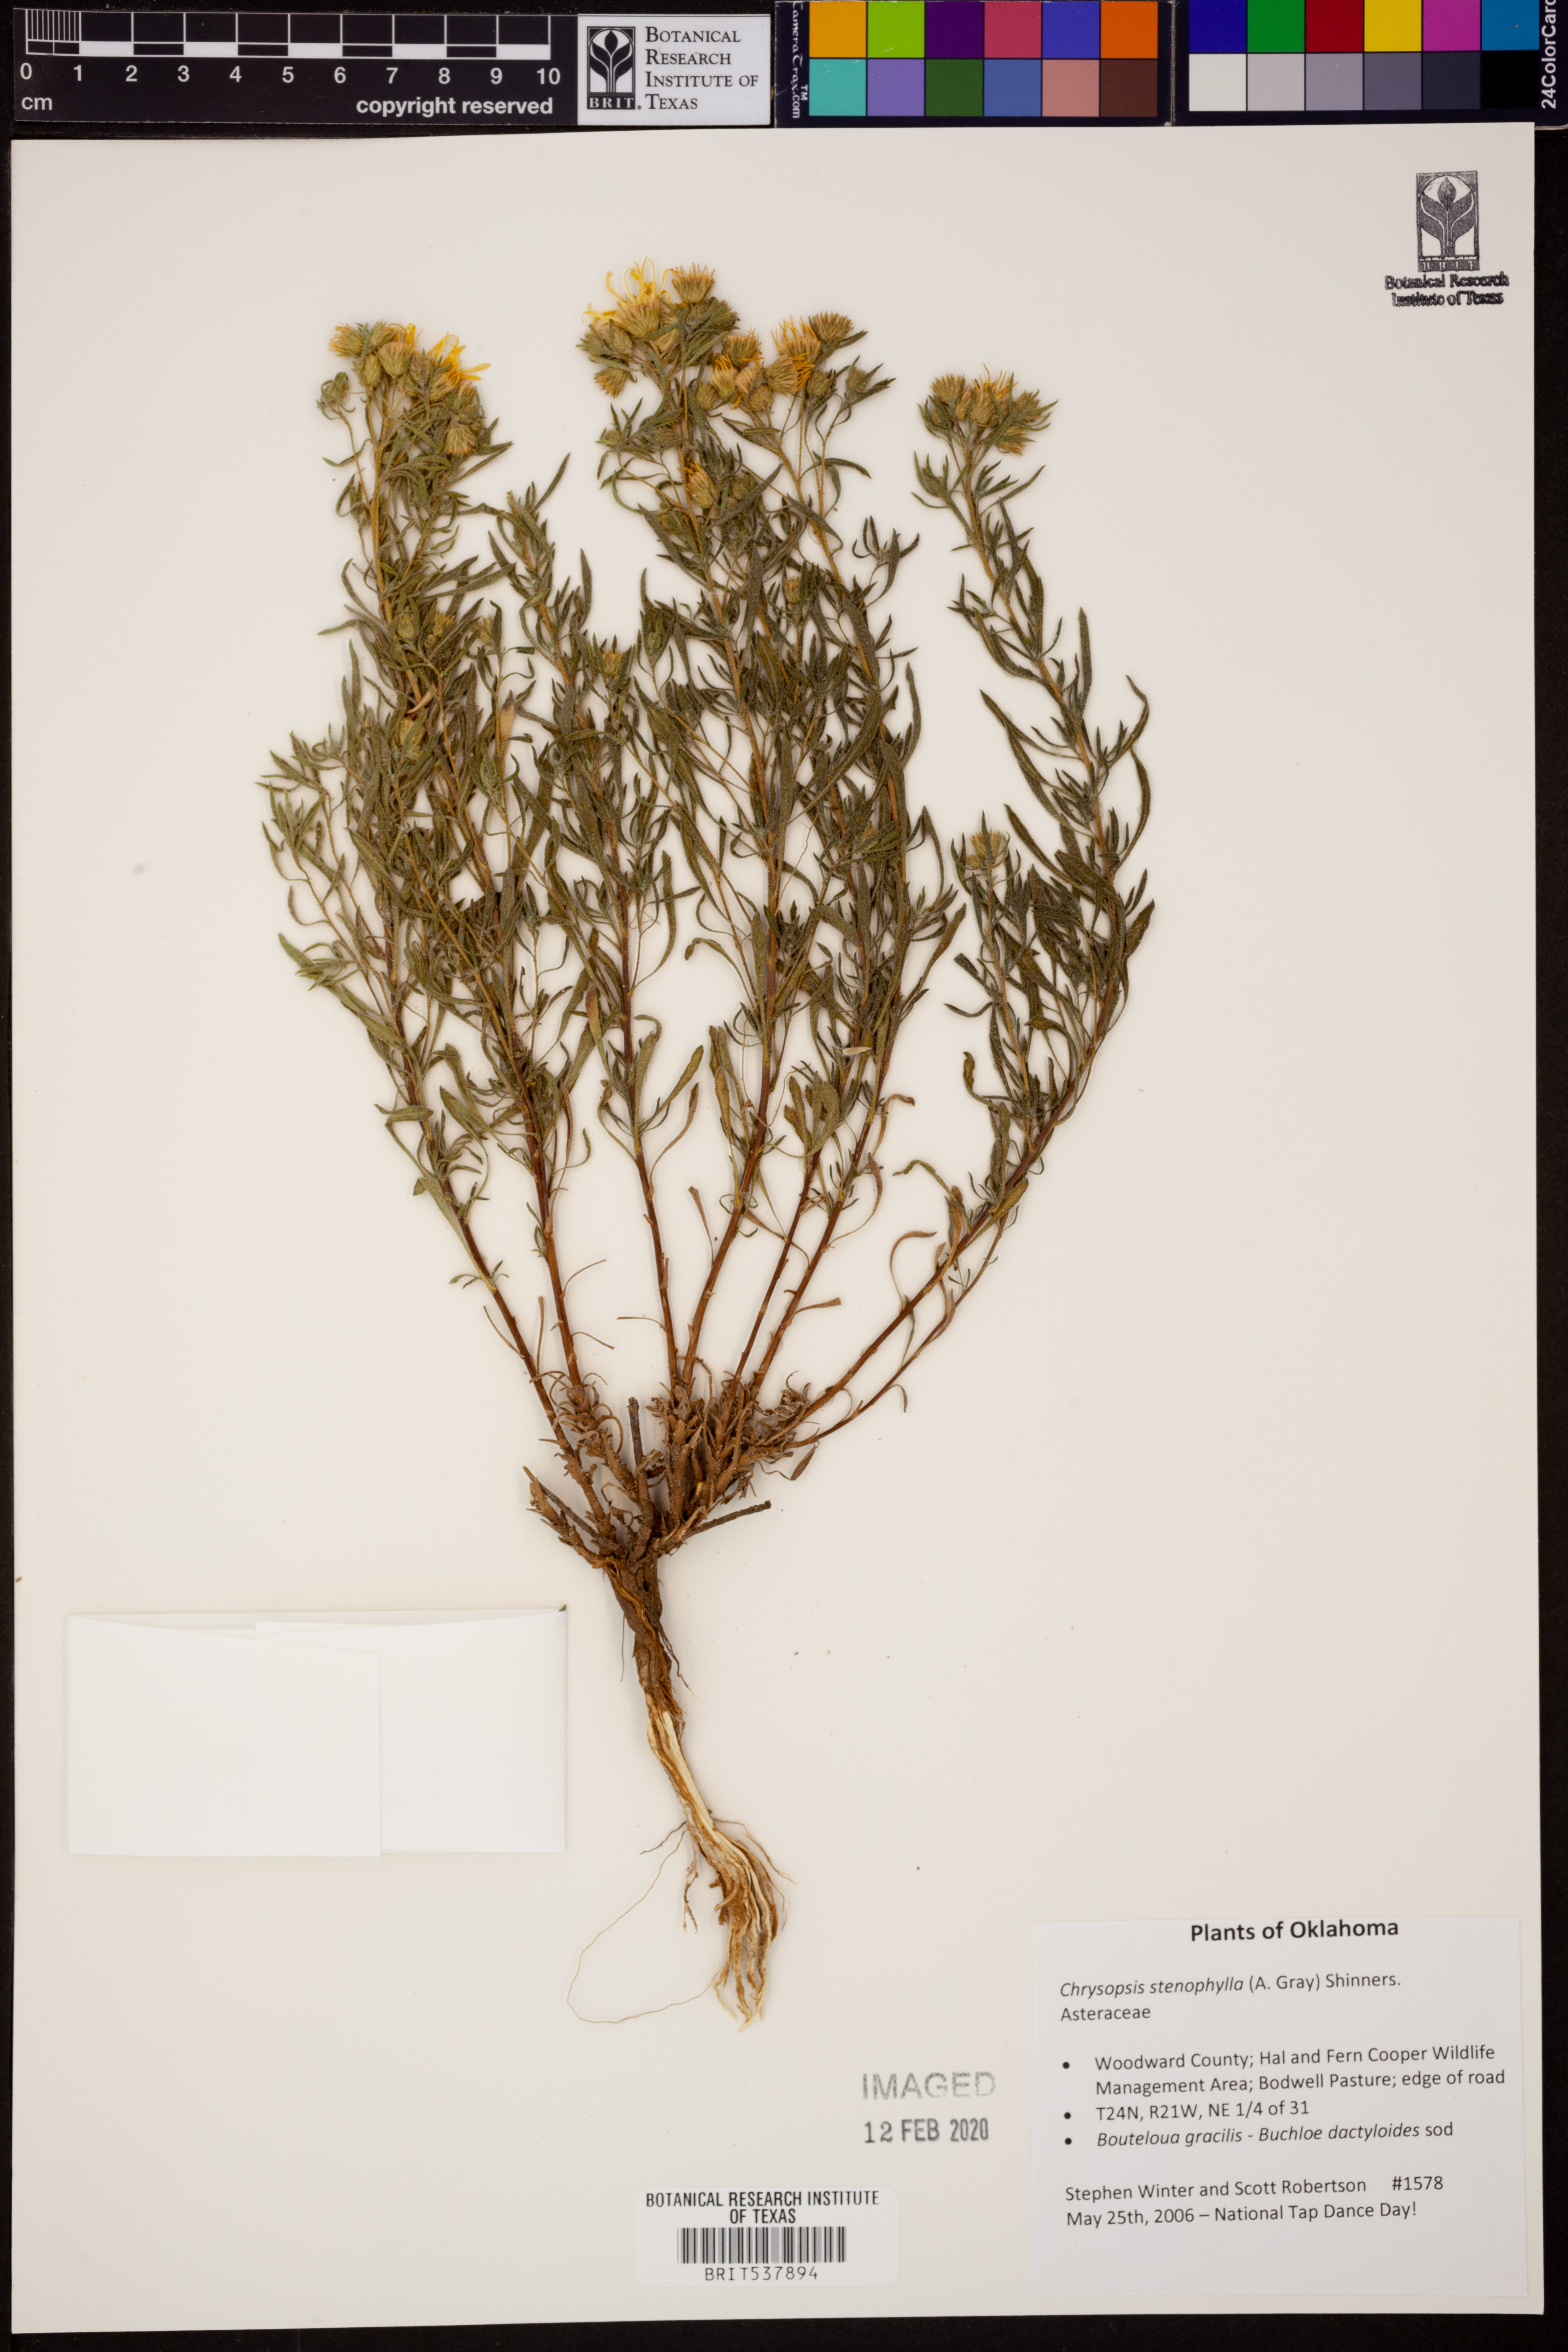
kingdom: Plantae
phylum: Tracheophyta
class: Magnoliopsida
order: Asterales
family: Asteraceae
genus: Heterotheca
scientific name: Heterotheca stenophylla
